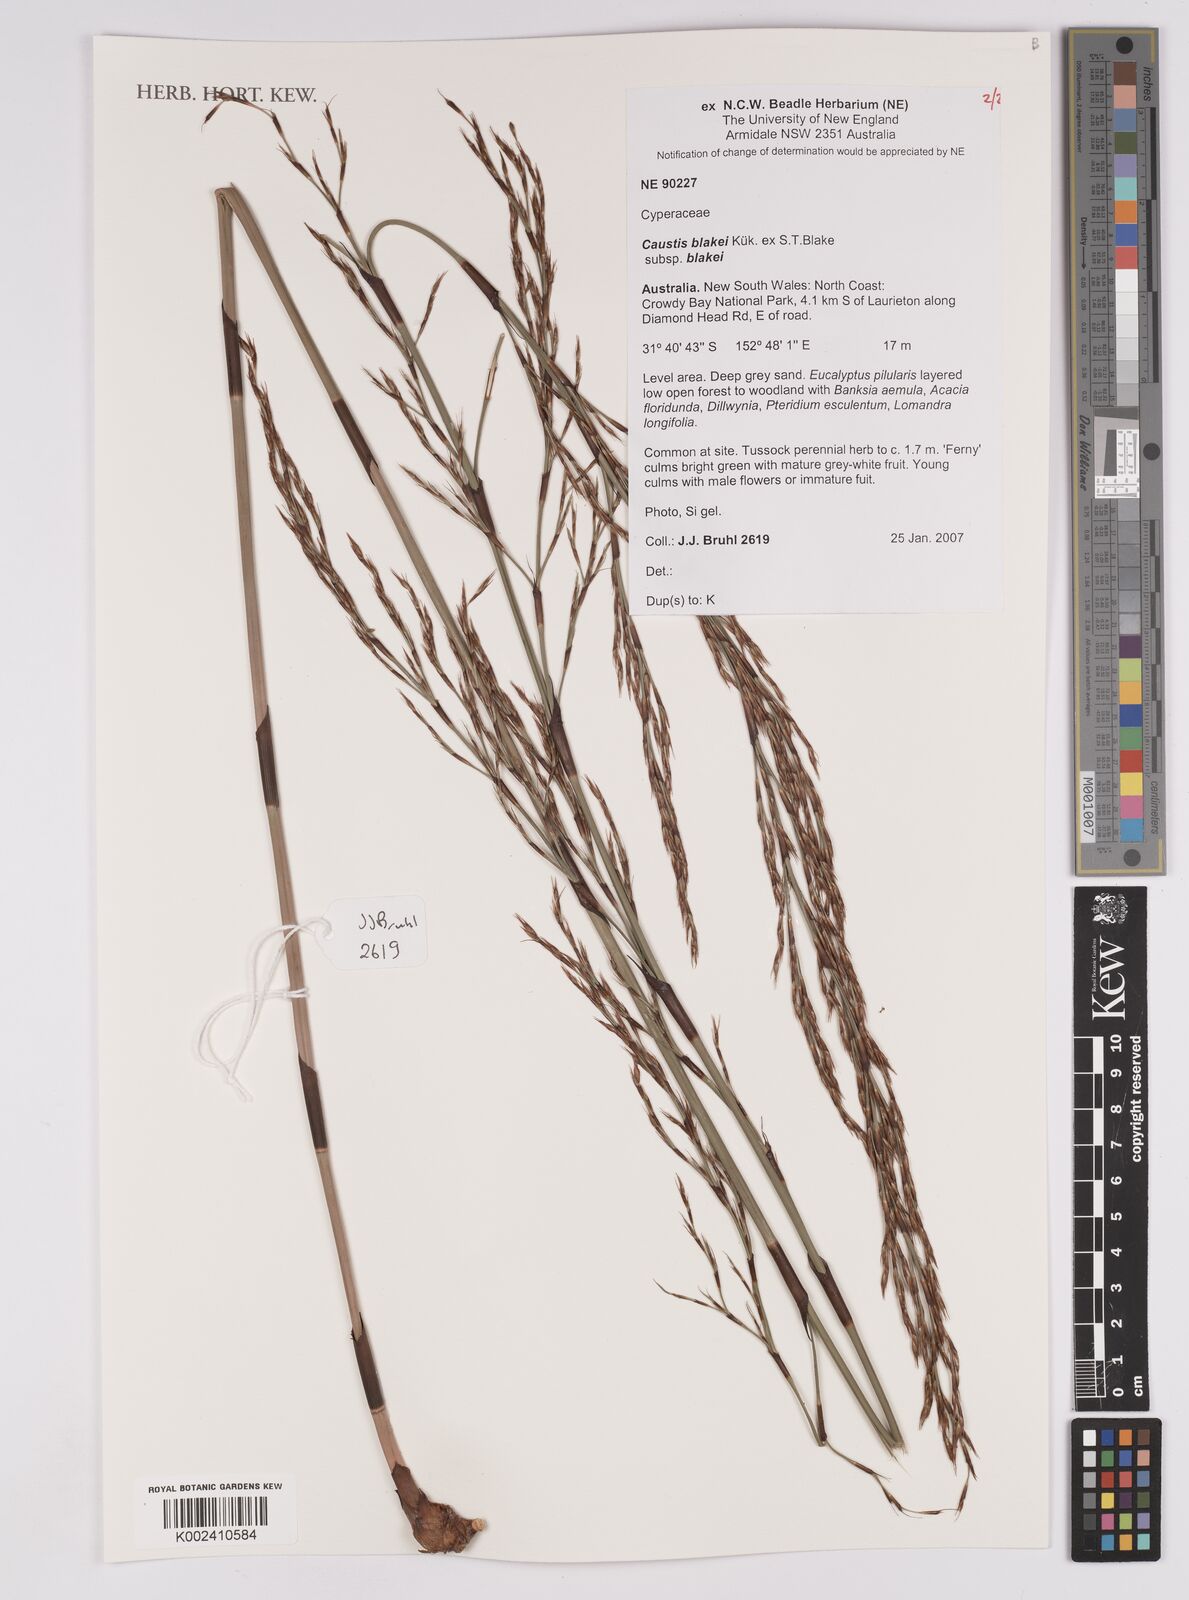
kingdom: Plantae
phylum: Tracheophyta
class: Liliopsida
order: Poales
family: Cyperaceae
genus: Caustis
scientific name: Caustis blakei
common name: Foxtail-fern
